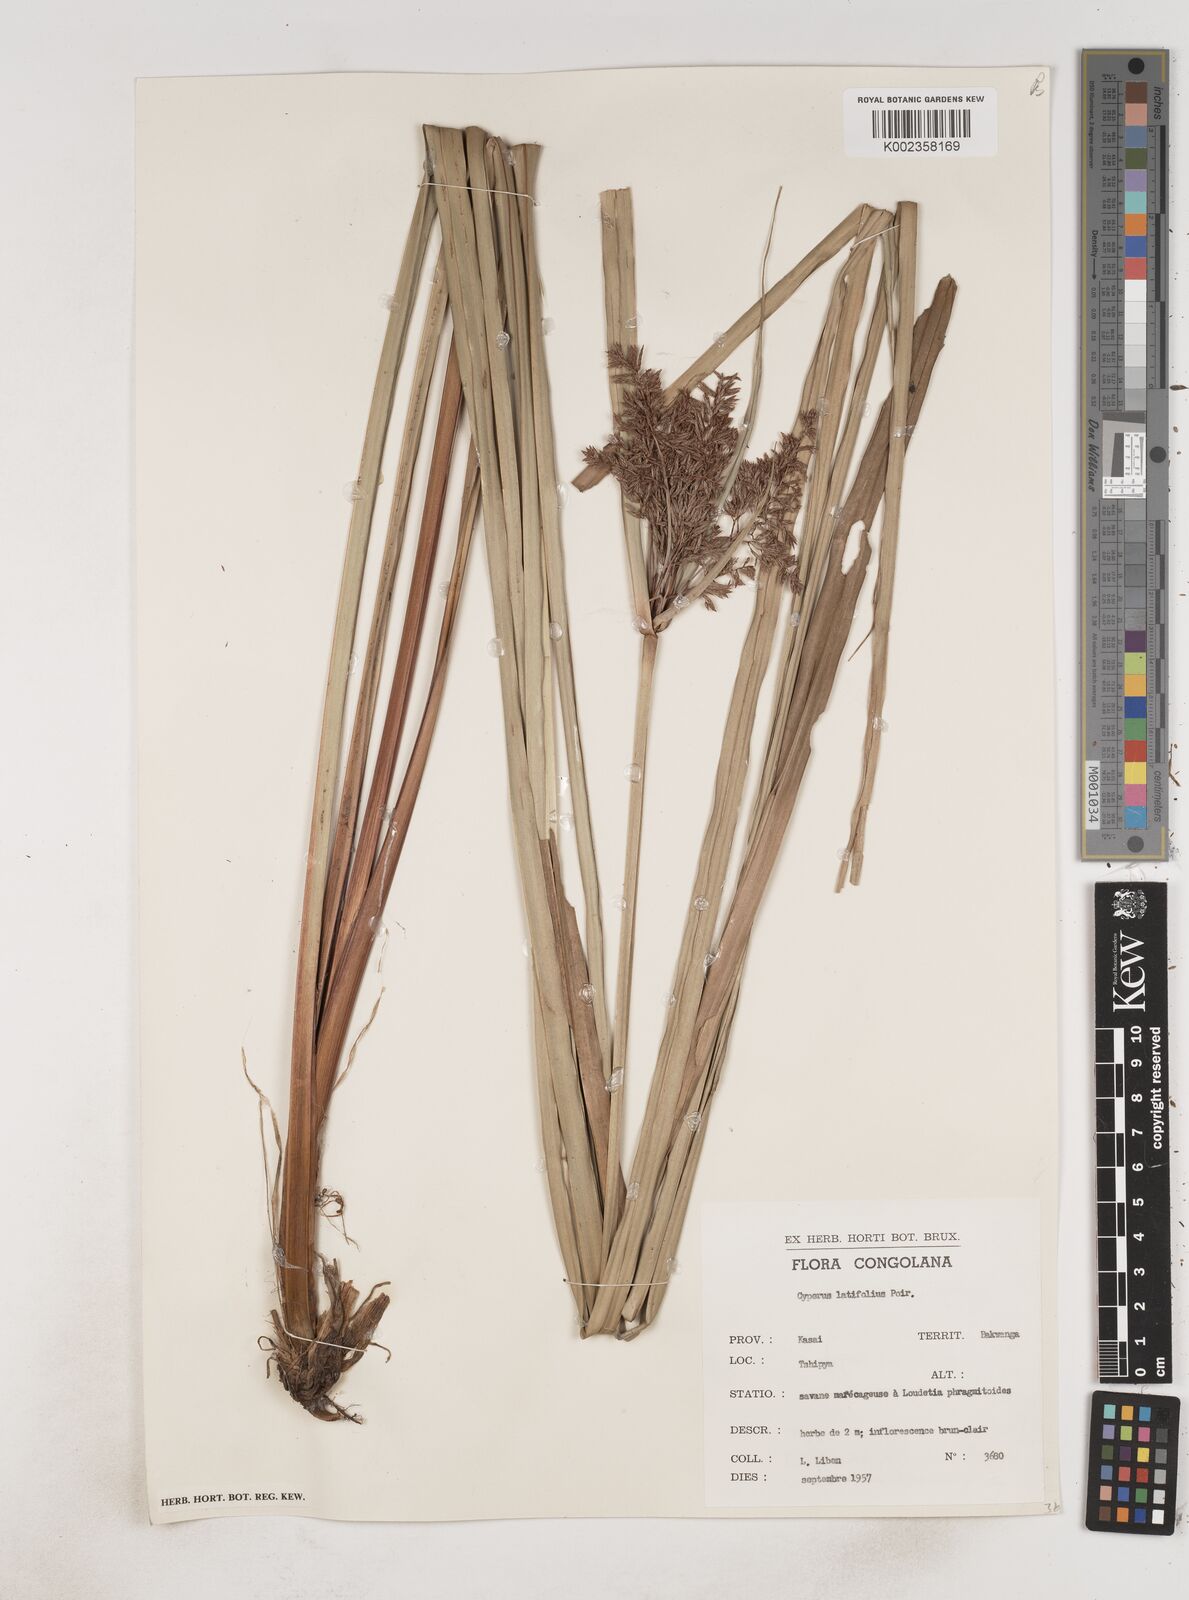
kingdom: Plantae
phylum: Tracheophyta
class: Liliopsida
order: Poales
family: Cyperaceae
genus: Cyperus
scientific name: Cyperus latifolius
